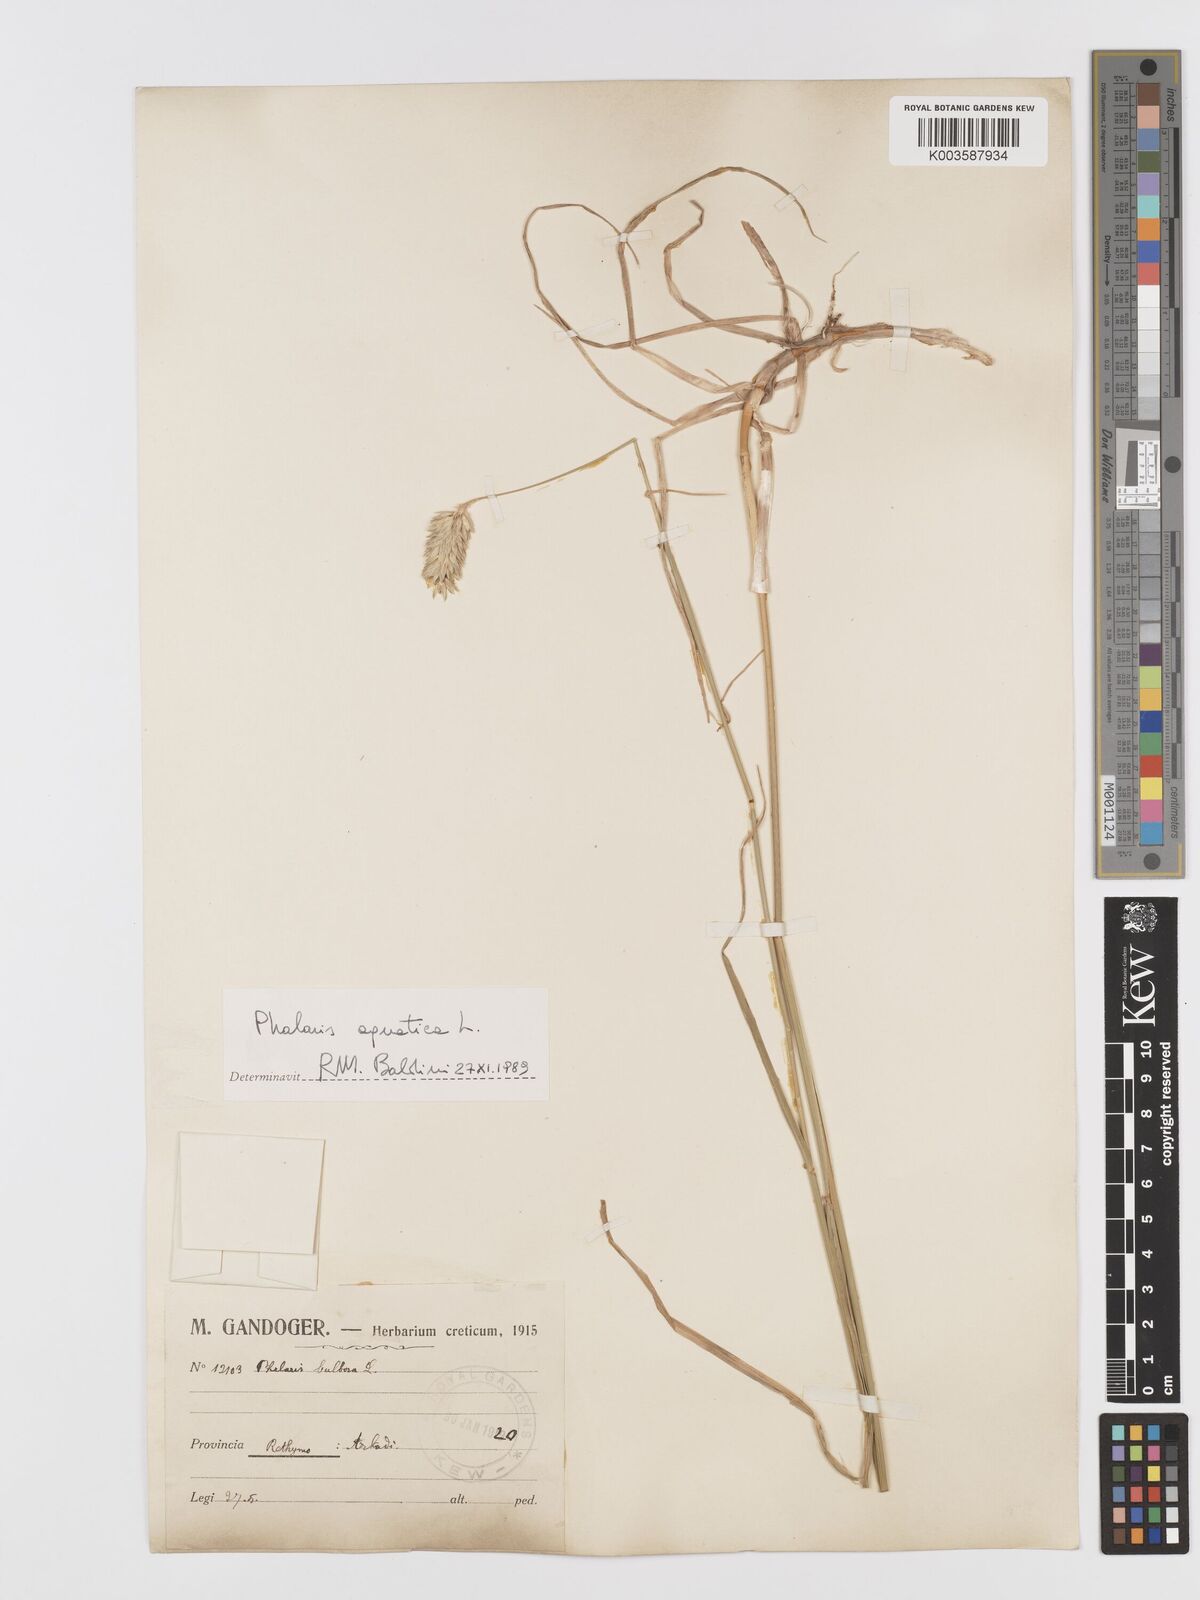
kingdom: Plantae
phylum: Tracheophyta
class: Liliopsida
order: Poales
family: Poaceae
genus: Phalaris
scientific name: Phalaris
